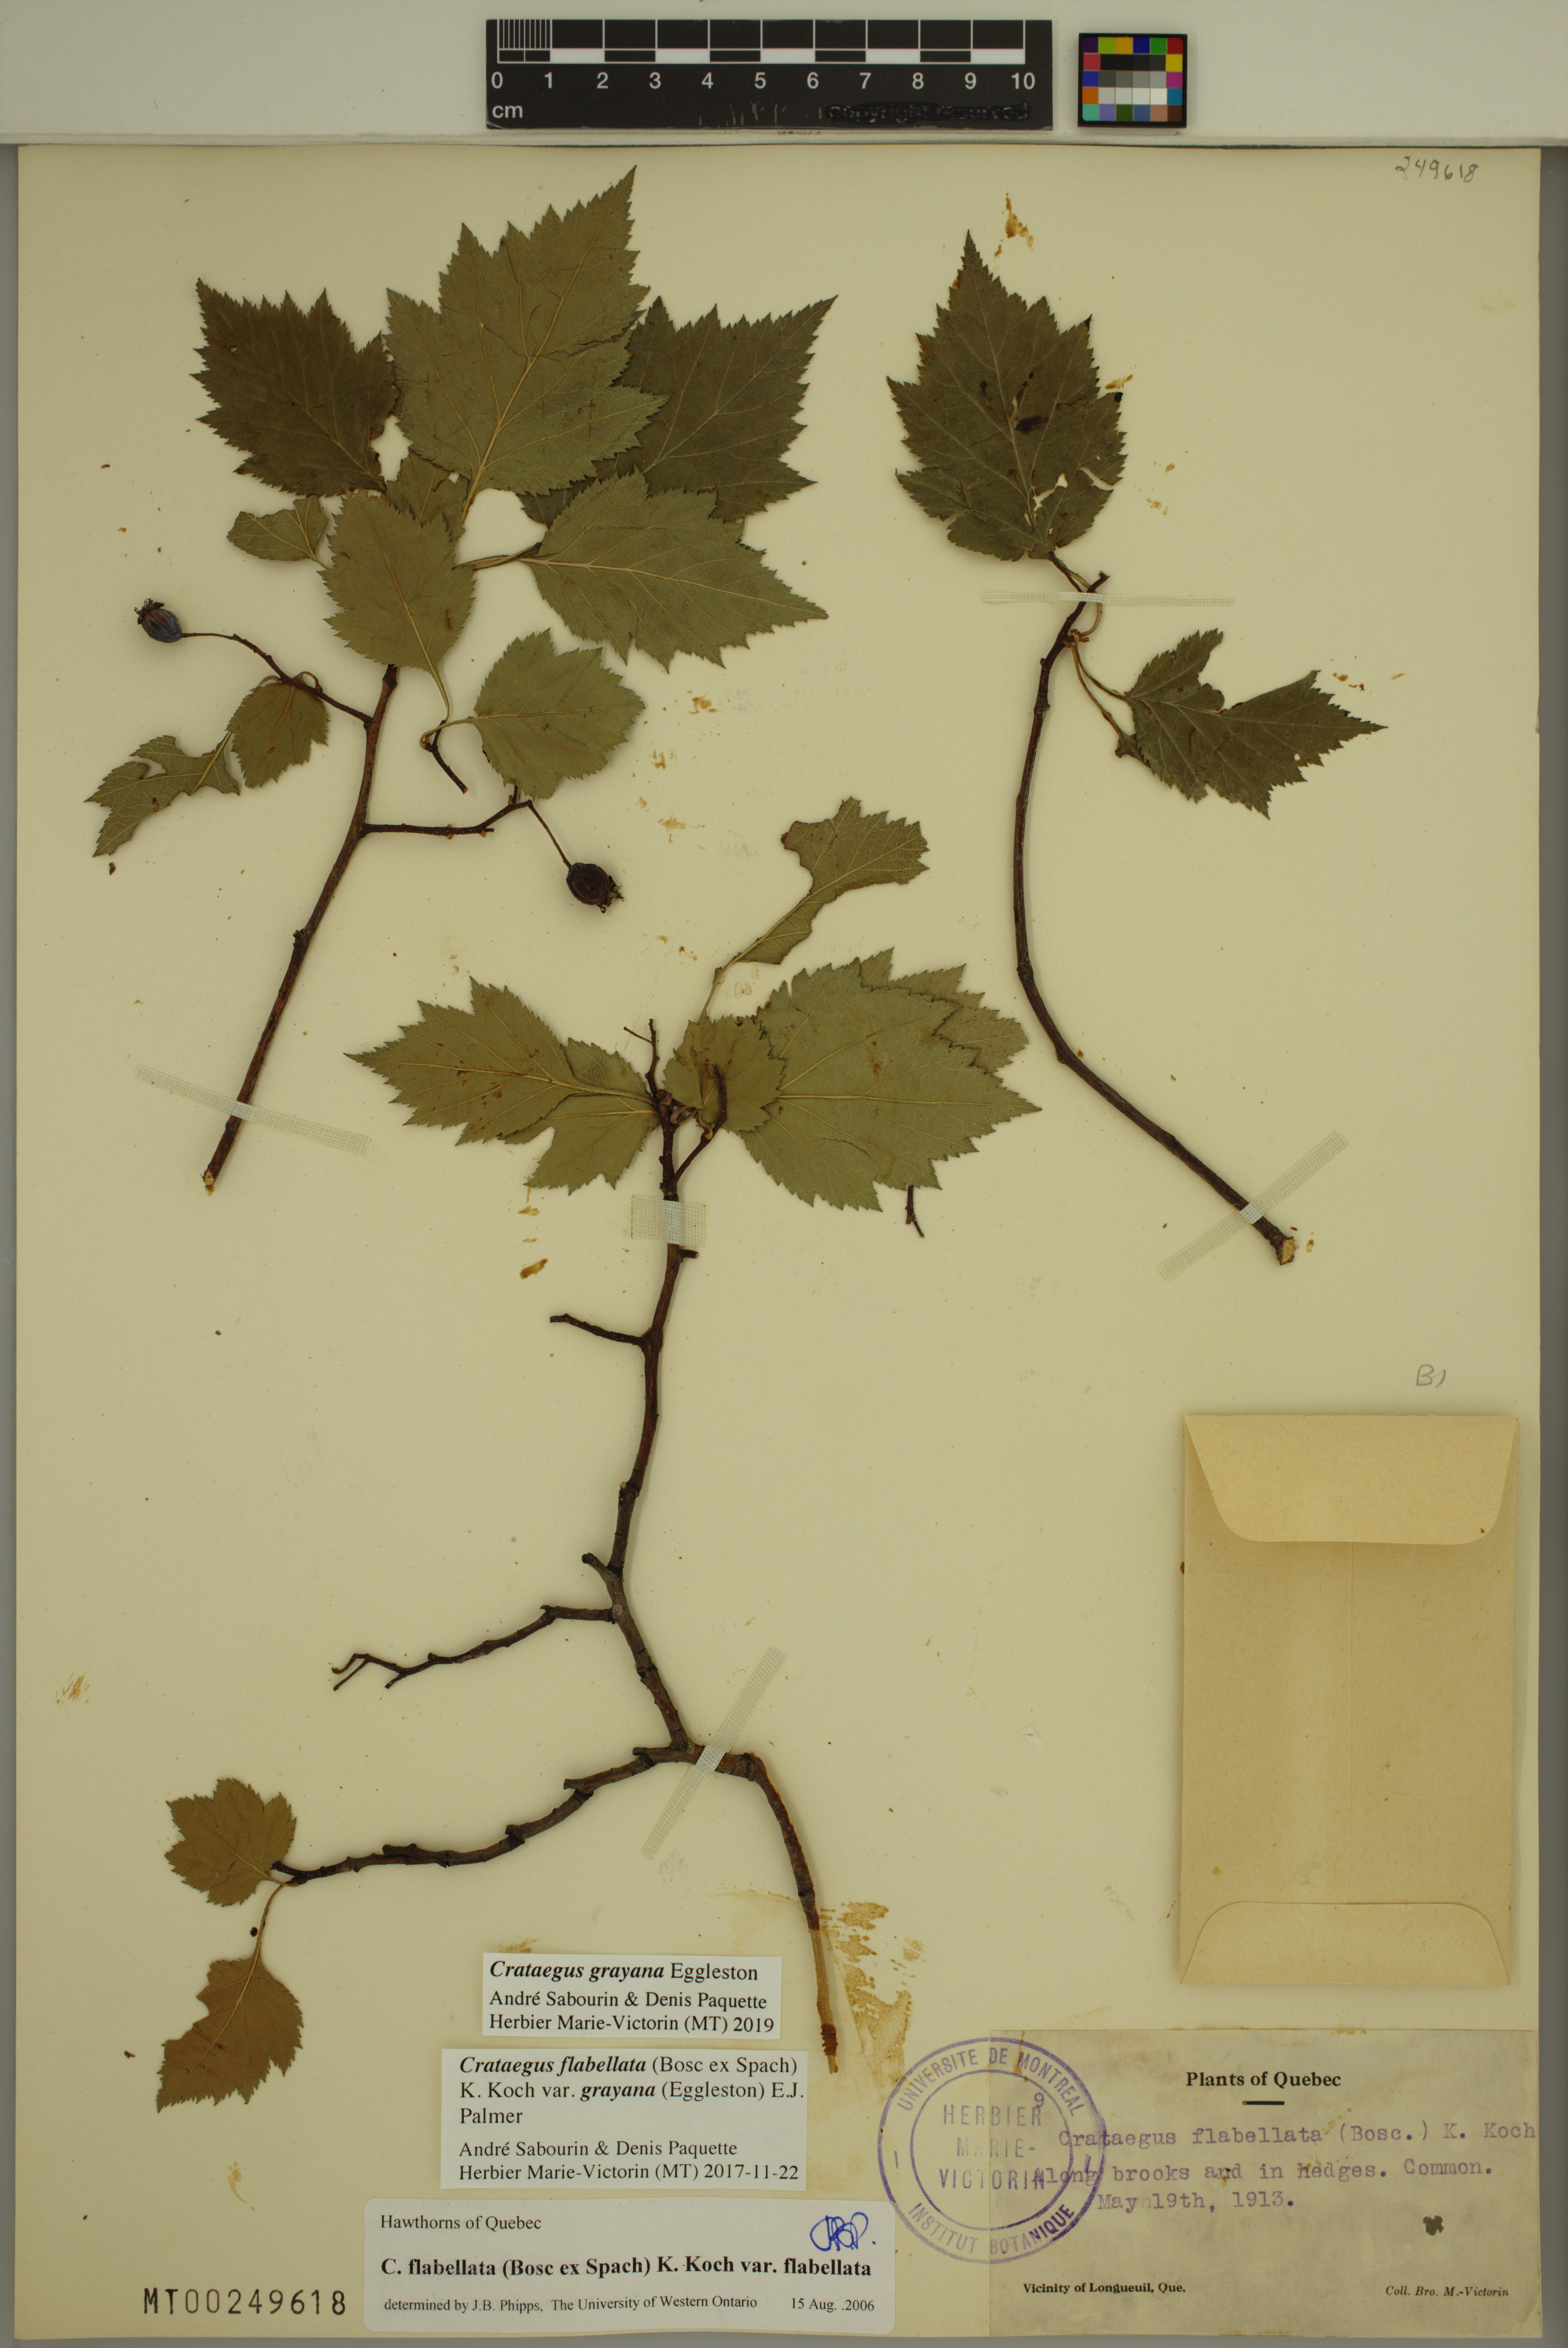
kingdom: Plantae
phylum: Tracheophyta
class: Magnoliopsida
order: Rosales
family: Rosaceae
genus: Crataegus
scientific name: Crataegus schuettei
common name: Schuette's hawthorn
